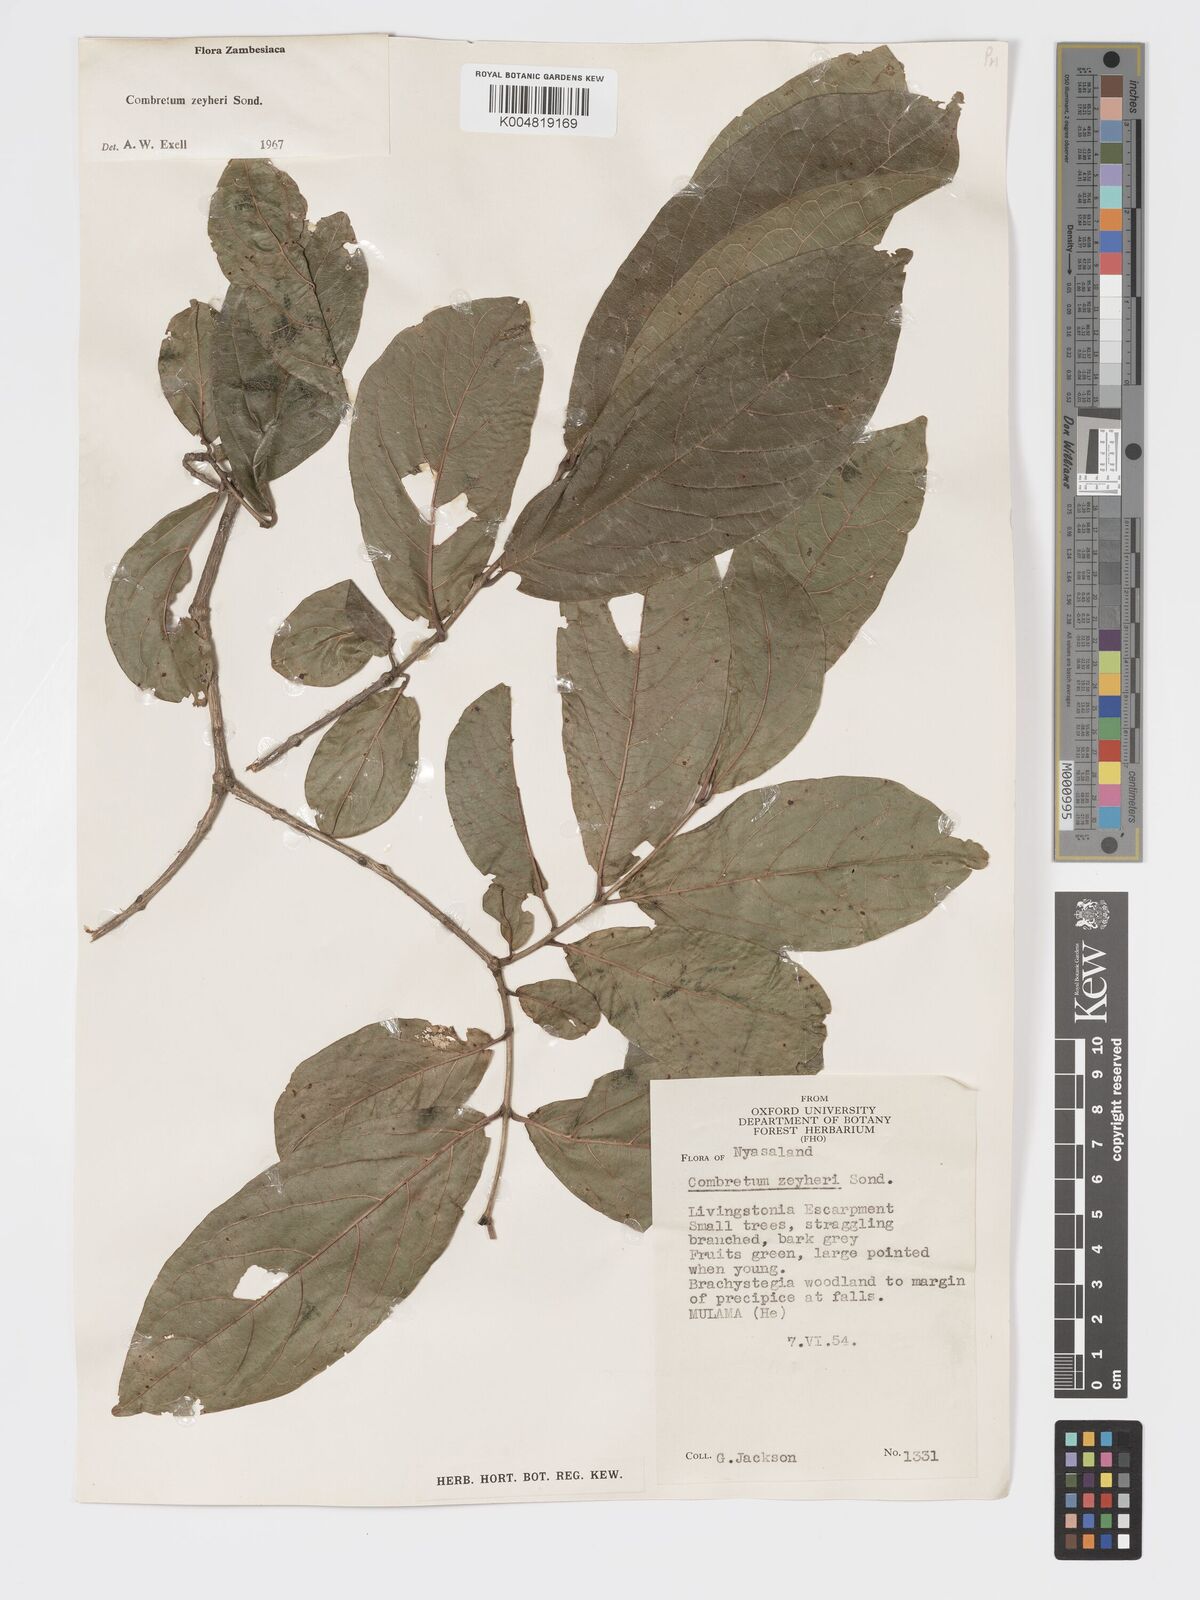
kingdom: Plantae
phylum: Tracheophyta
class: Magnoliopsida
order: Myrtales
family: Combretaceae
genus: Combretum
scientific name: Combretum zeyheri
